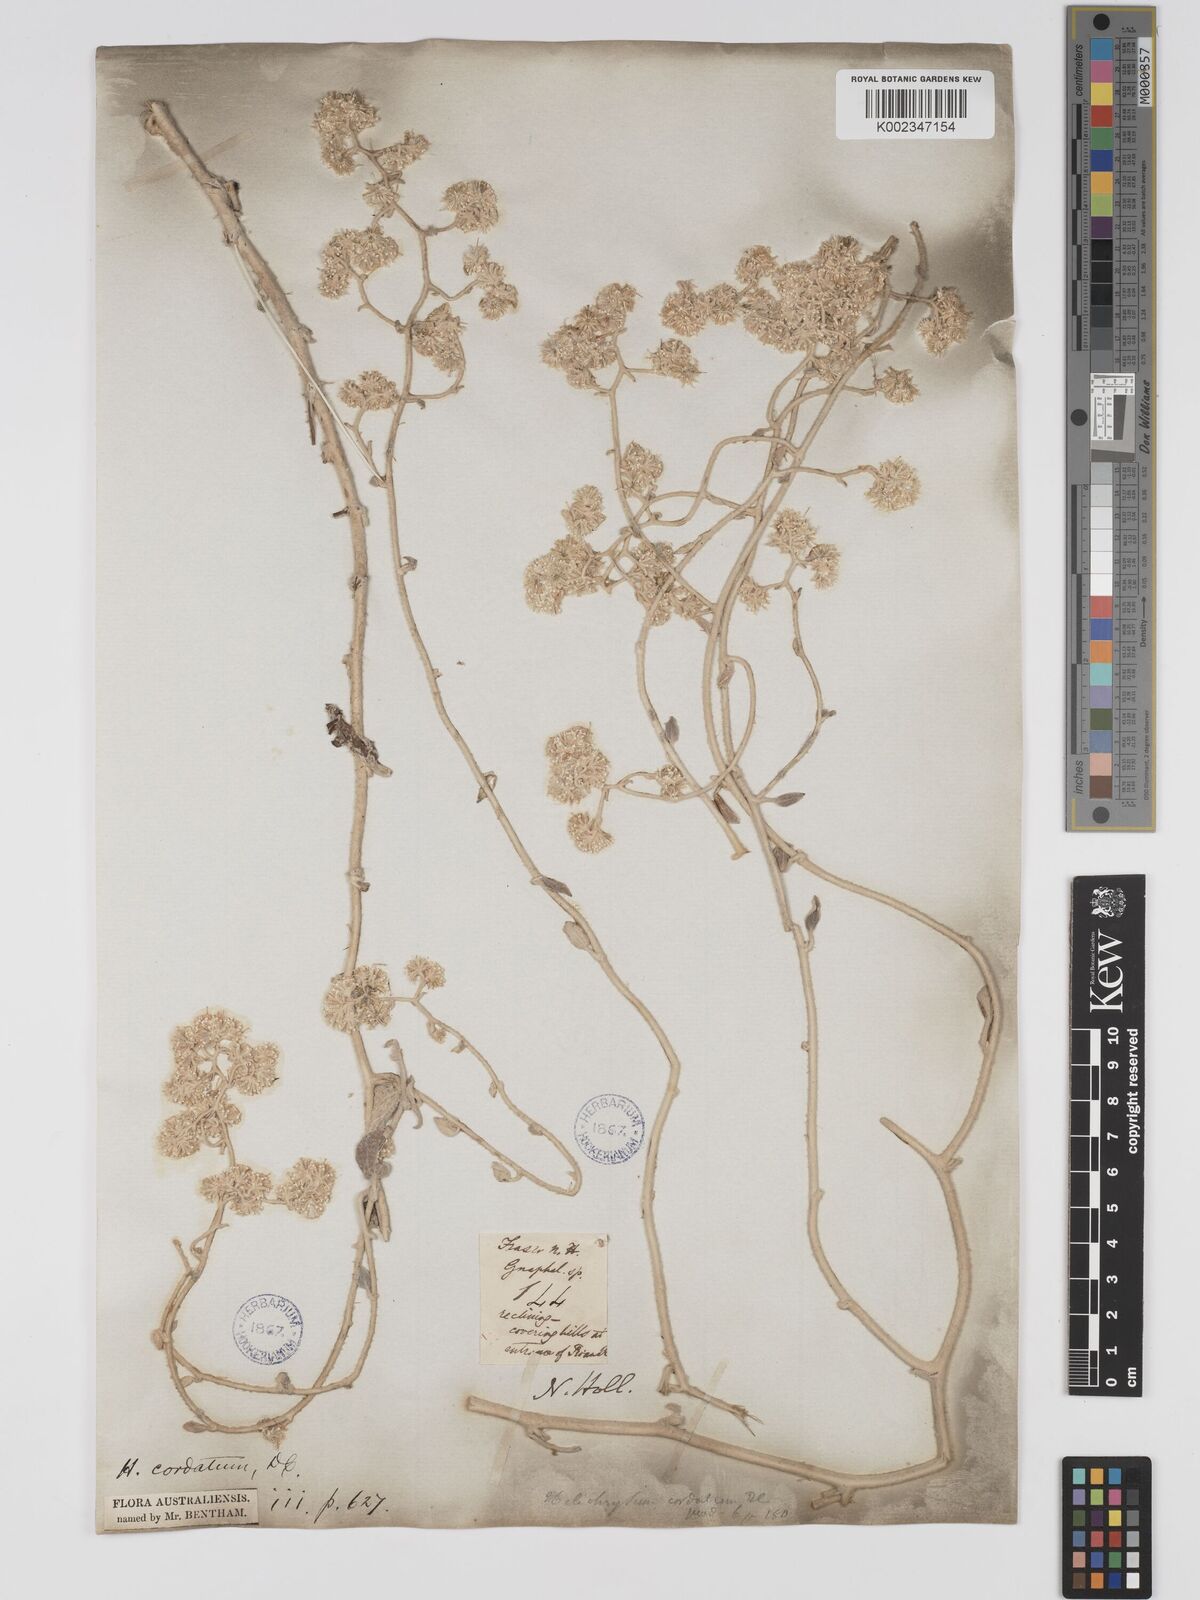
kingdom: Plantae
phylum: Tracheophyta
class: Magnoliopsida
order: Asterales
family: Asteraceae
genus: Ozothamnus
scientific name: Ozothamnus
